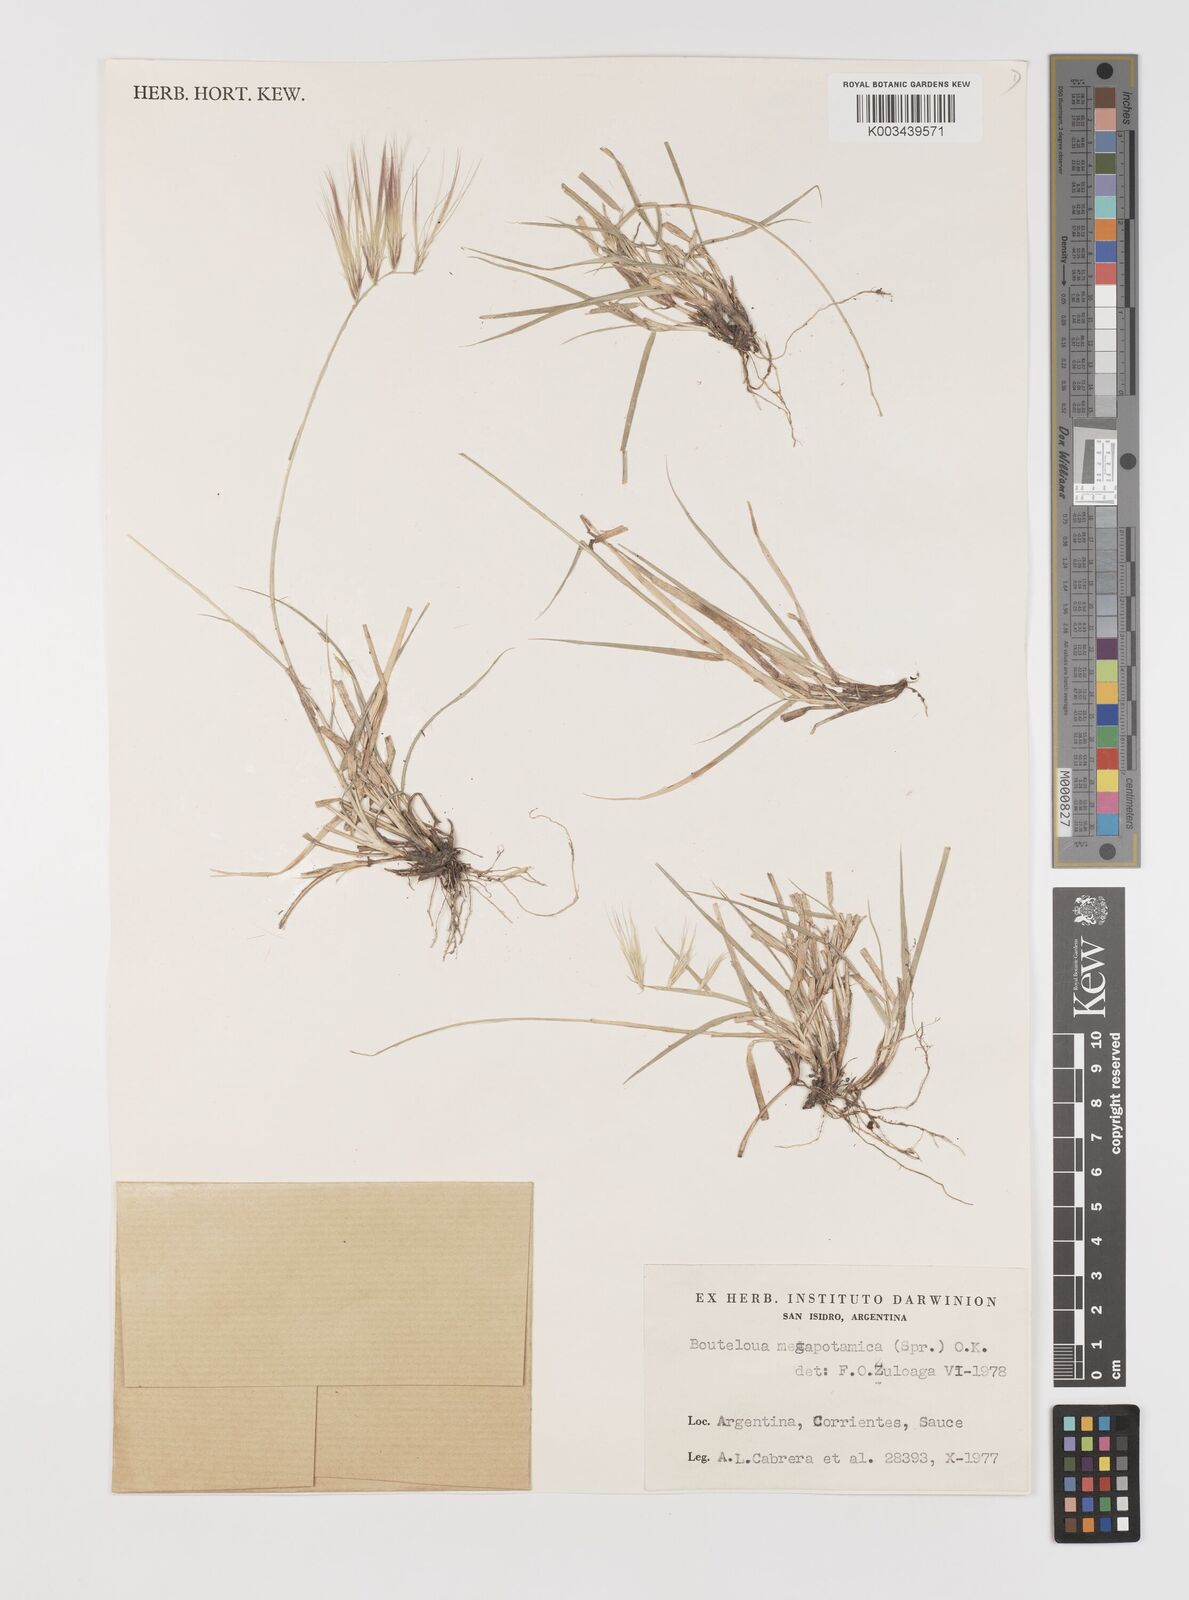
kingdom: Plantae
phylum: Tracheophyta
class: Liliopsida
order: Poales
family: Poaceae
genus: Bouteloua
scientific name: Bouteloua megapotamica
